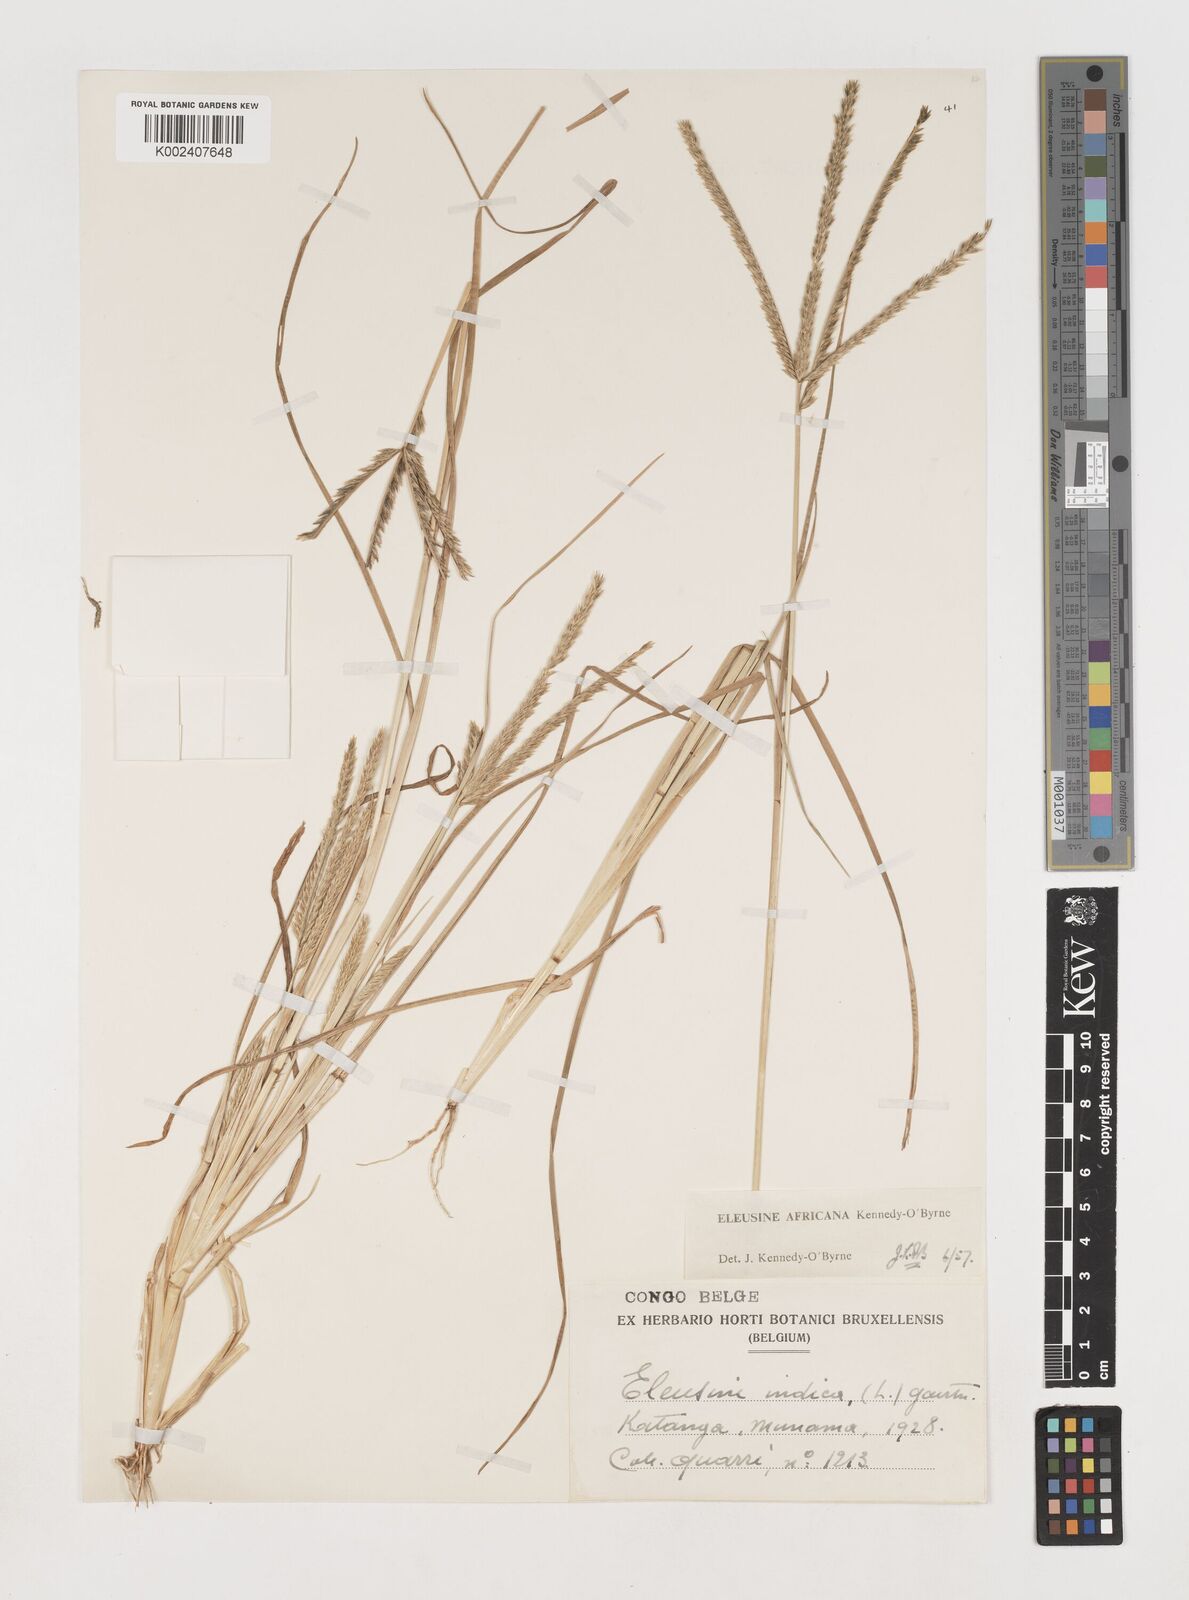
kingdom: Plantae
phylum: Tracheophyta
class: Liliopsida
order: Poales
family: Poaceae
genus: Eleusine
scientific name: Eleusine africana
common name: Wild african finger millet
